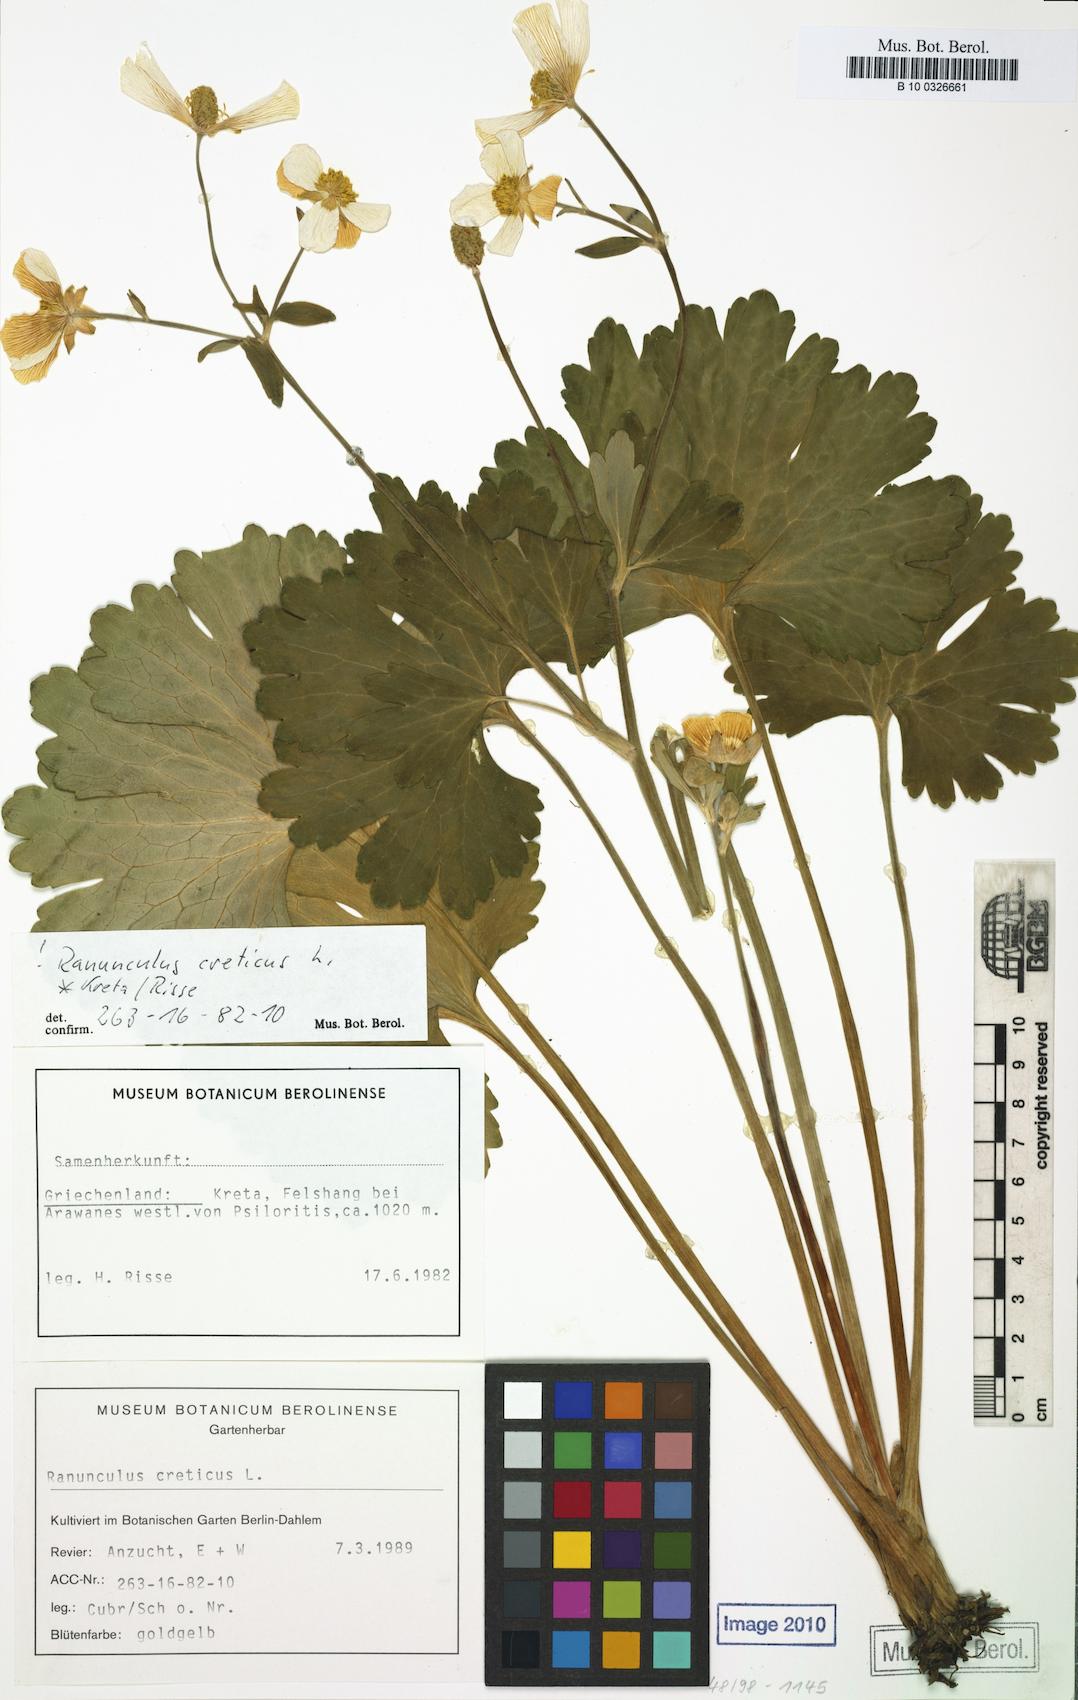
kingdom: Plantae
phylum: Tracheophyta
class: Magnoliopsida
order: Ranunculales
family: Ranunculaceae
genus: Ranunculus
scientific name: Ranunculus creticus
